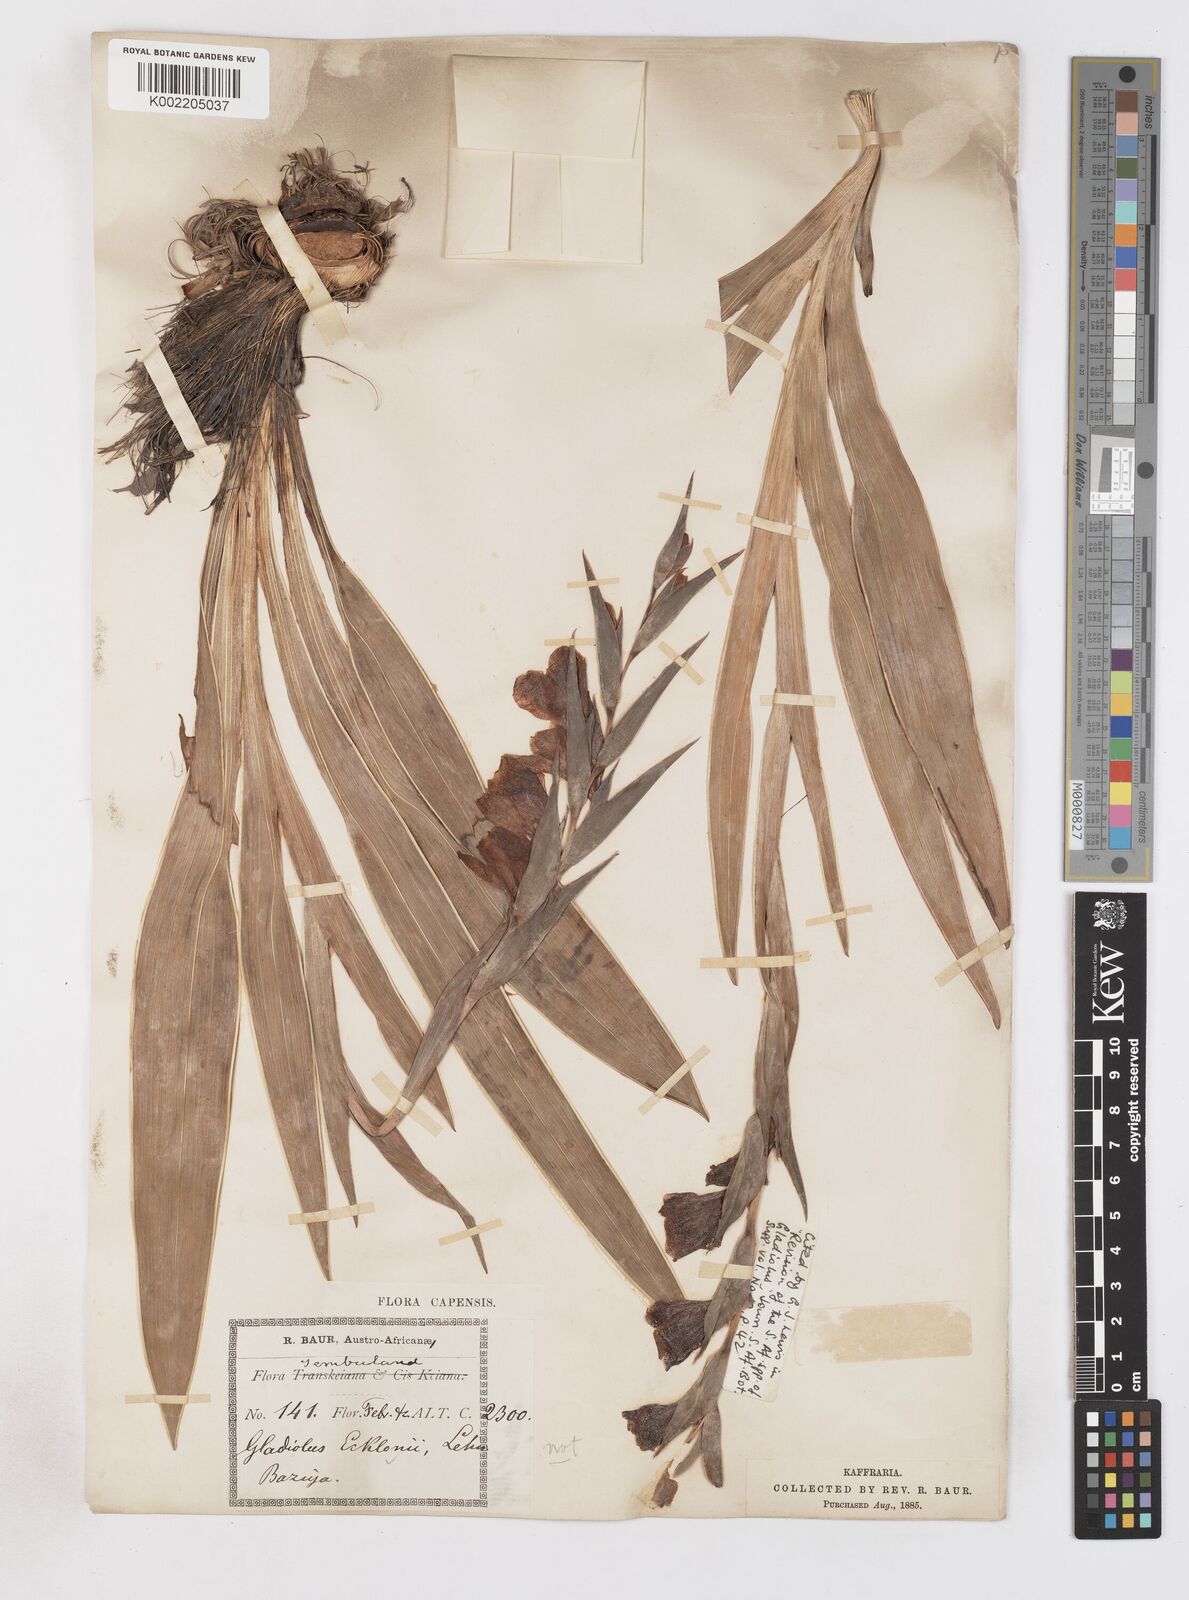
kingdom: Plantae
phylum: Tracheophyta
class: Liliopsida
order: Asparagales
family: Iridaceae
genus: Gladiolus
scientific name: Gladiolus ecklonii
